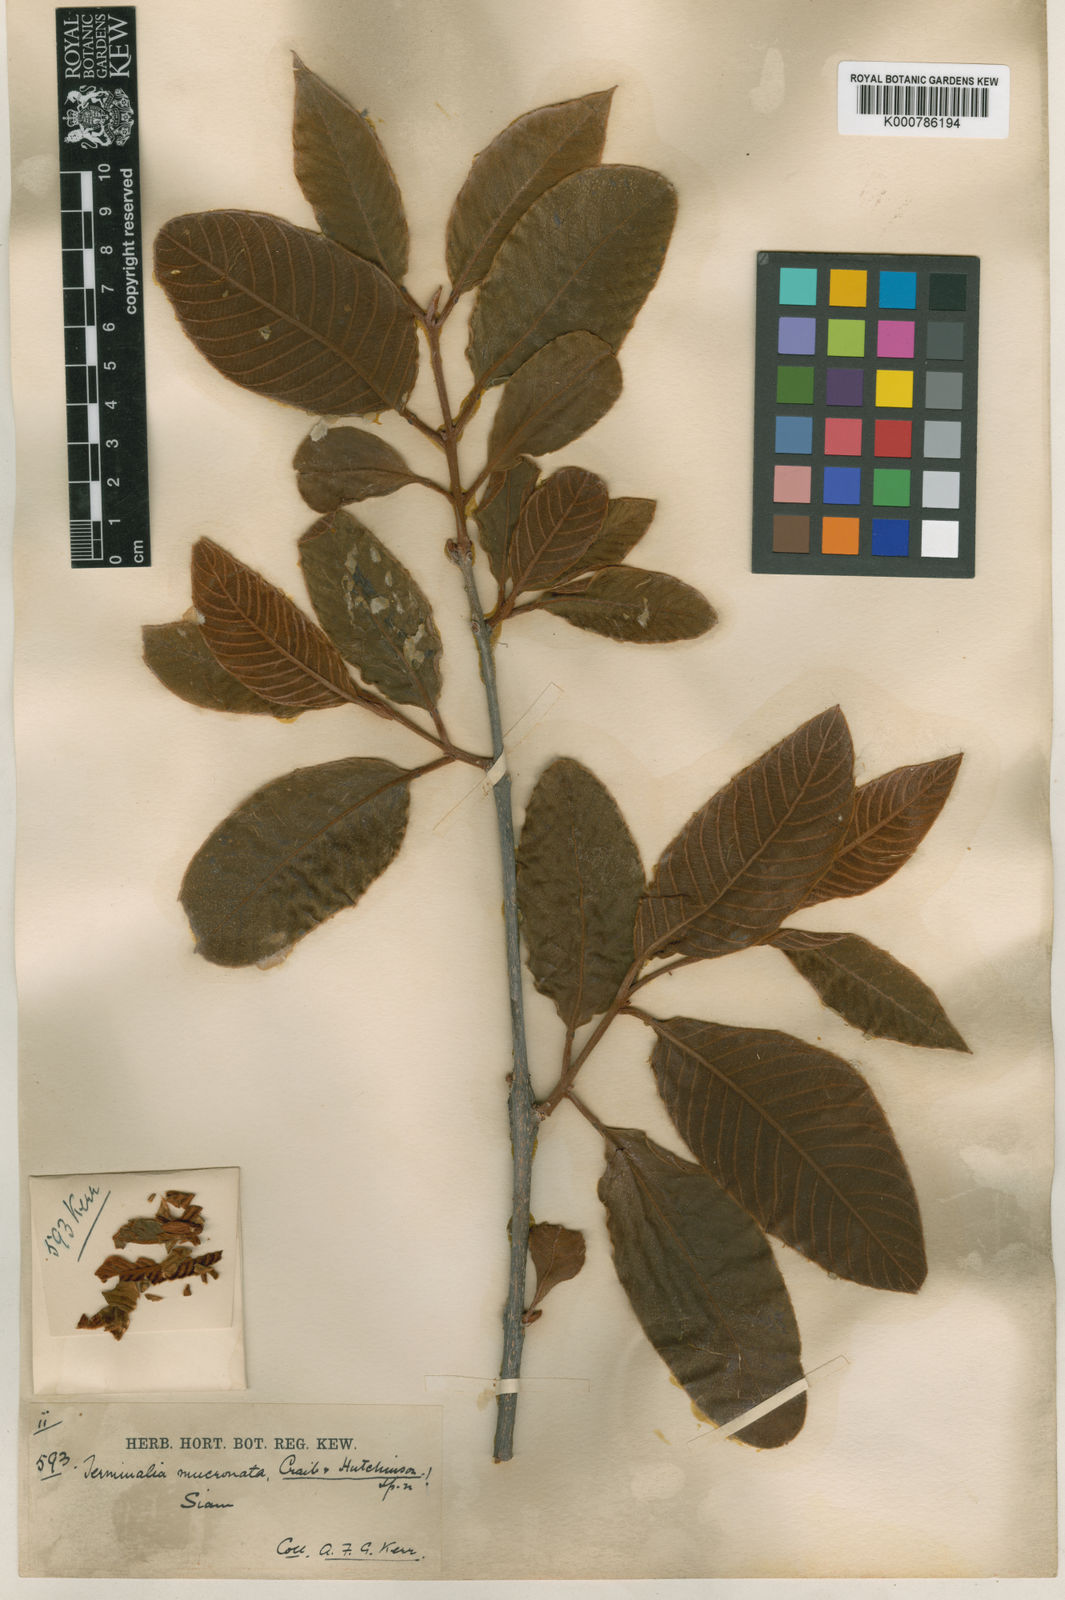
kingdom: Plantae
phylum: Tracheophyta
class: Magnoliopsida
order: Myrtales
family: Combretaceae
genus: Terminalia
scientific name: Terminalia corticosa
